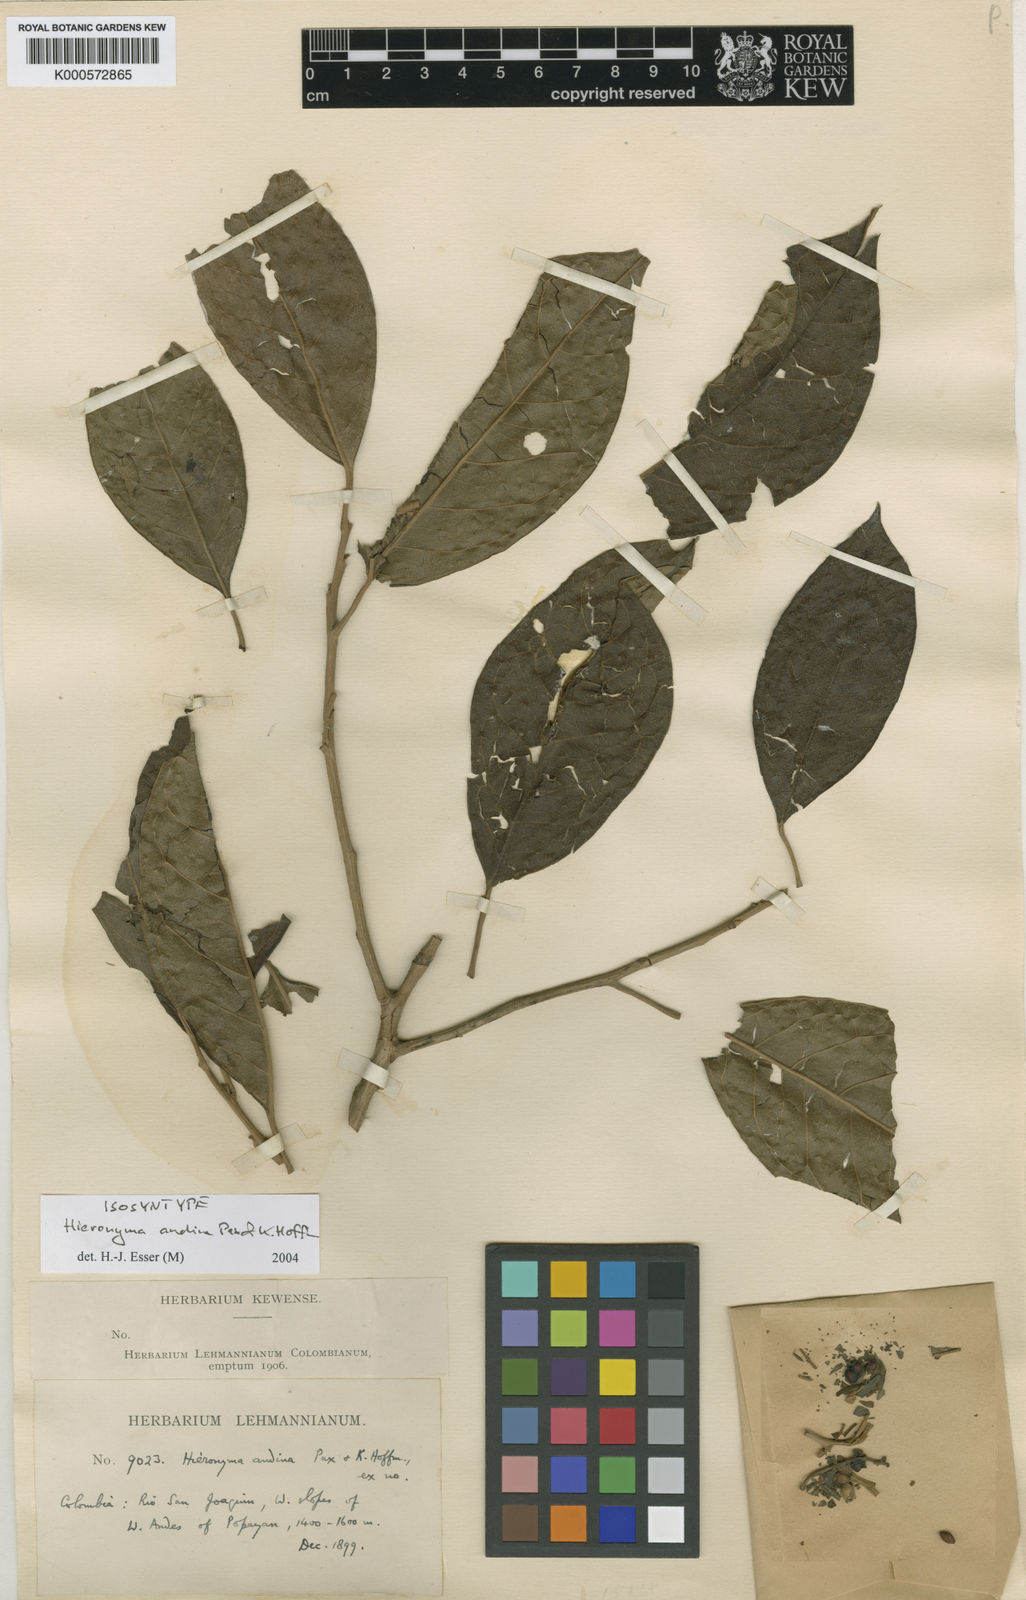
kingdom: Plantae
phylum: Tracheophyta
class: Magnoliopsida
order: Malpighiales
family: Phyllanthaceae
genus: Hieronyma
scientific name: Hieronyma
